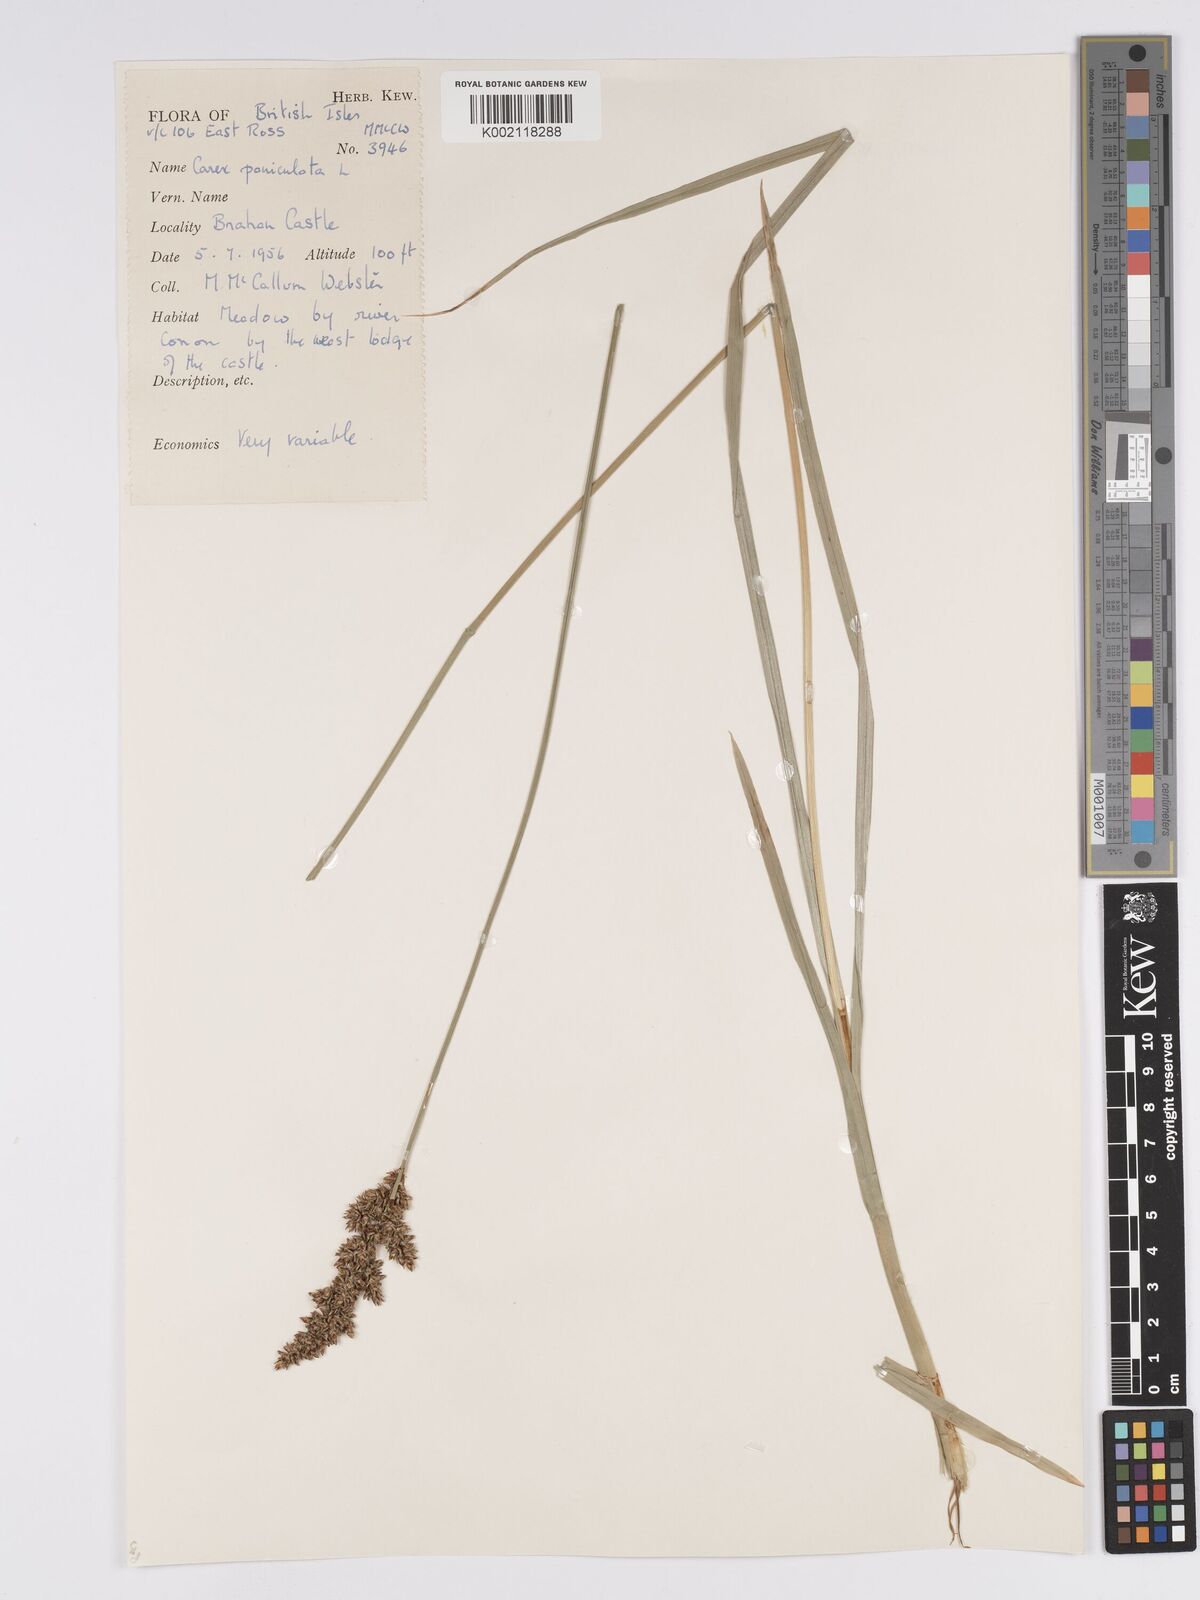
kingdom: Plantae
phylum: Tracheophyta
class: Liliopsida
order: Poales
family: Cyperaceae
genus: Carex
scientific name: Carex paniculata
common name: Greater tussock-sedge
